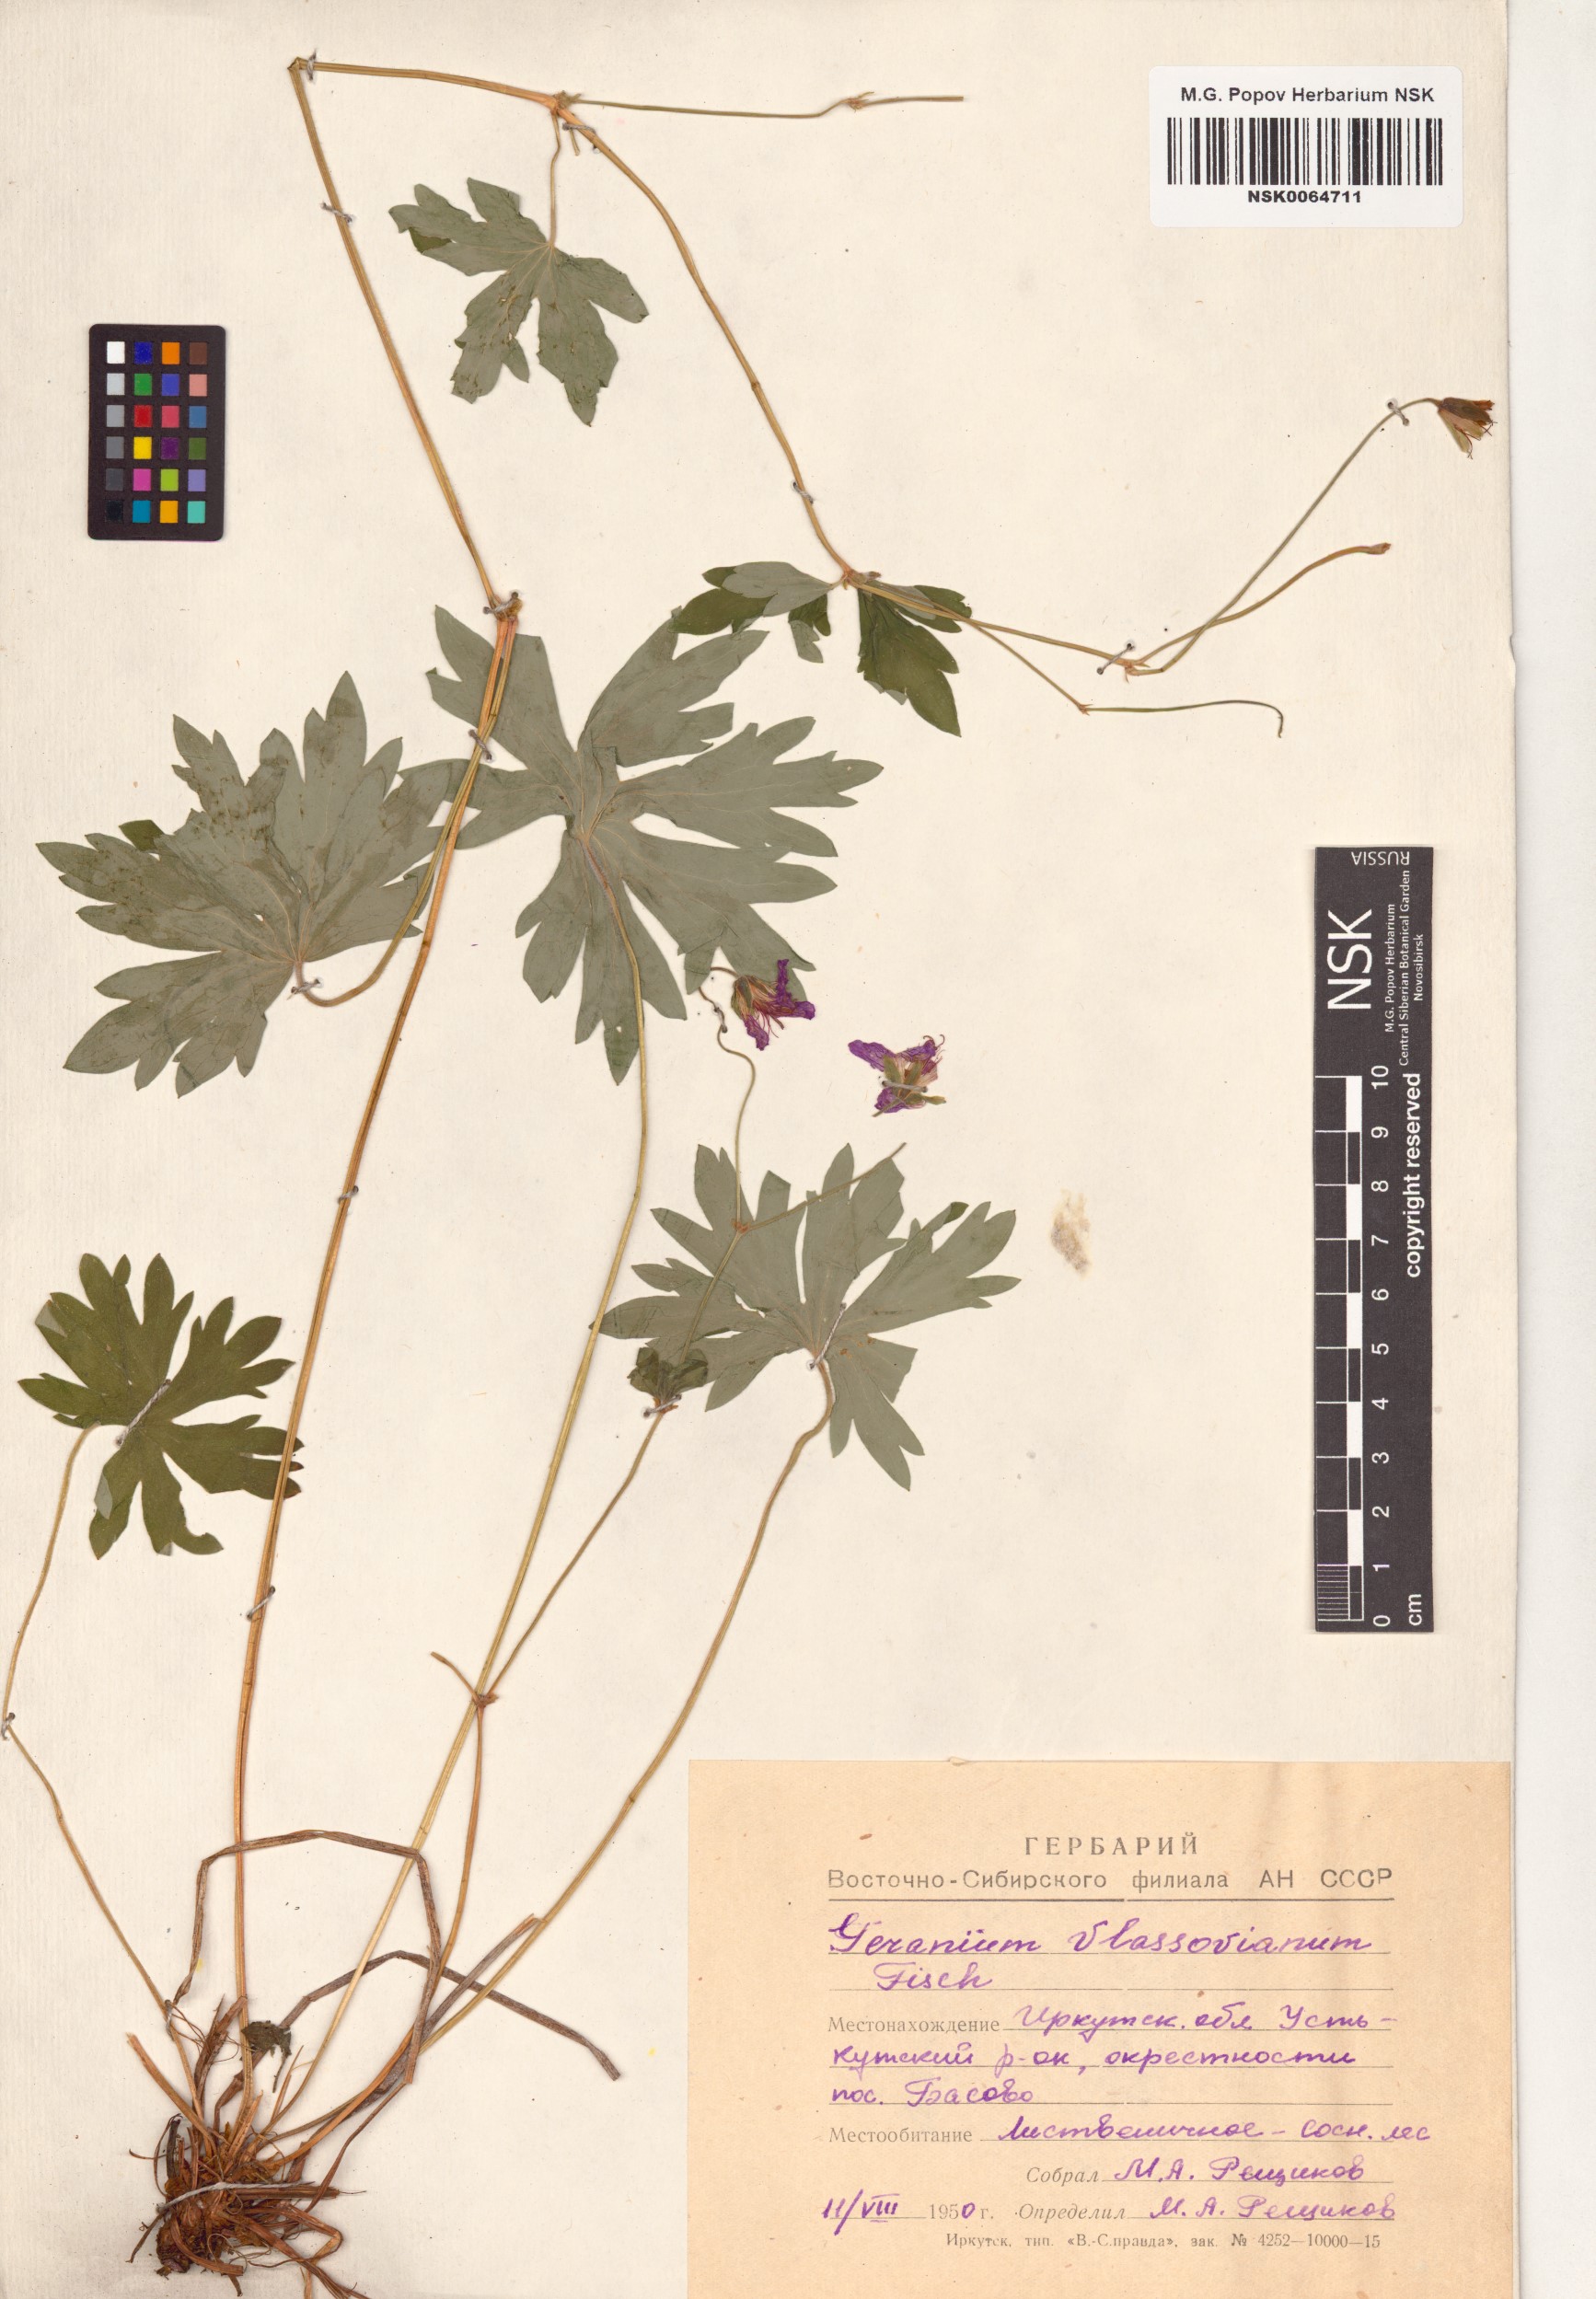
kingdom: Plantae
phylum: Tracheophyta
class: Magnoliopsida
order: Geraniales
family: Geraniaceae
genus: Geranium
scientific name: Geranium wlassovianum
